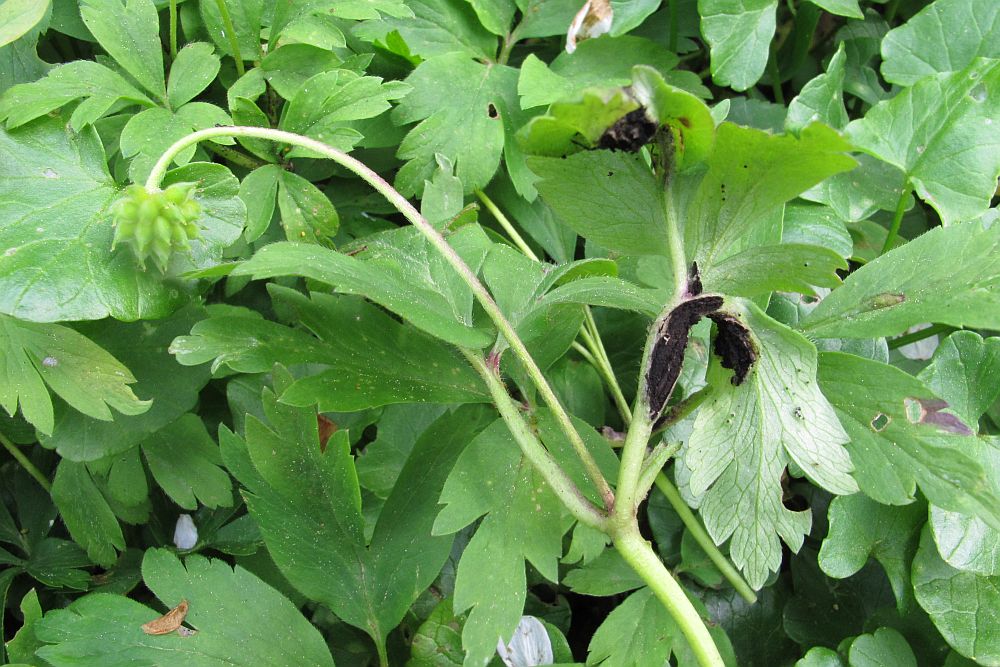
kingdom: Fungi
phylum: Basidiomycota
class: Ustilaginomycetes
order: Urocystidales
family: Urocystidaceae
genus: Urocystis
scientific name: Urocystis anemones
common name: anemone-brand
